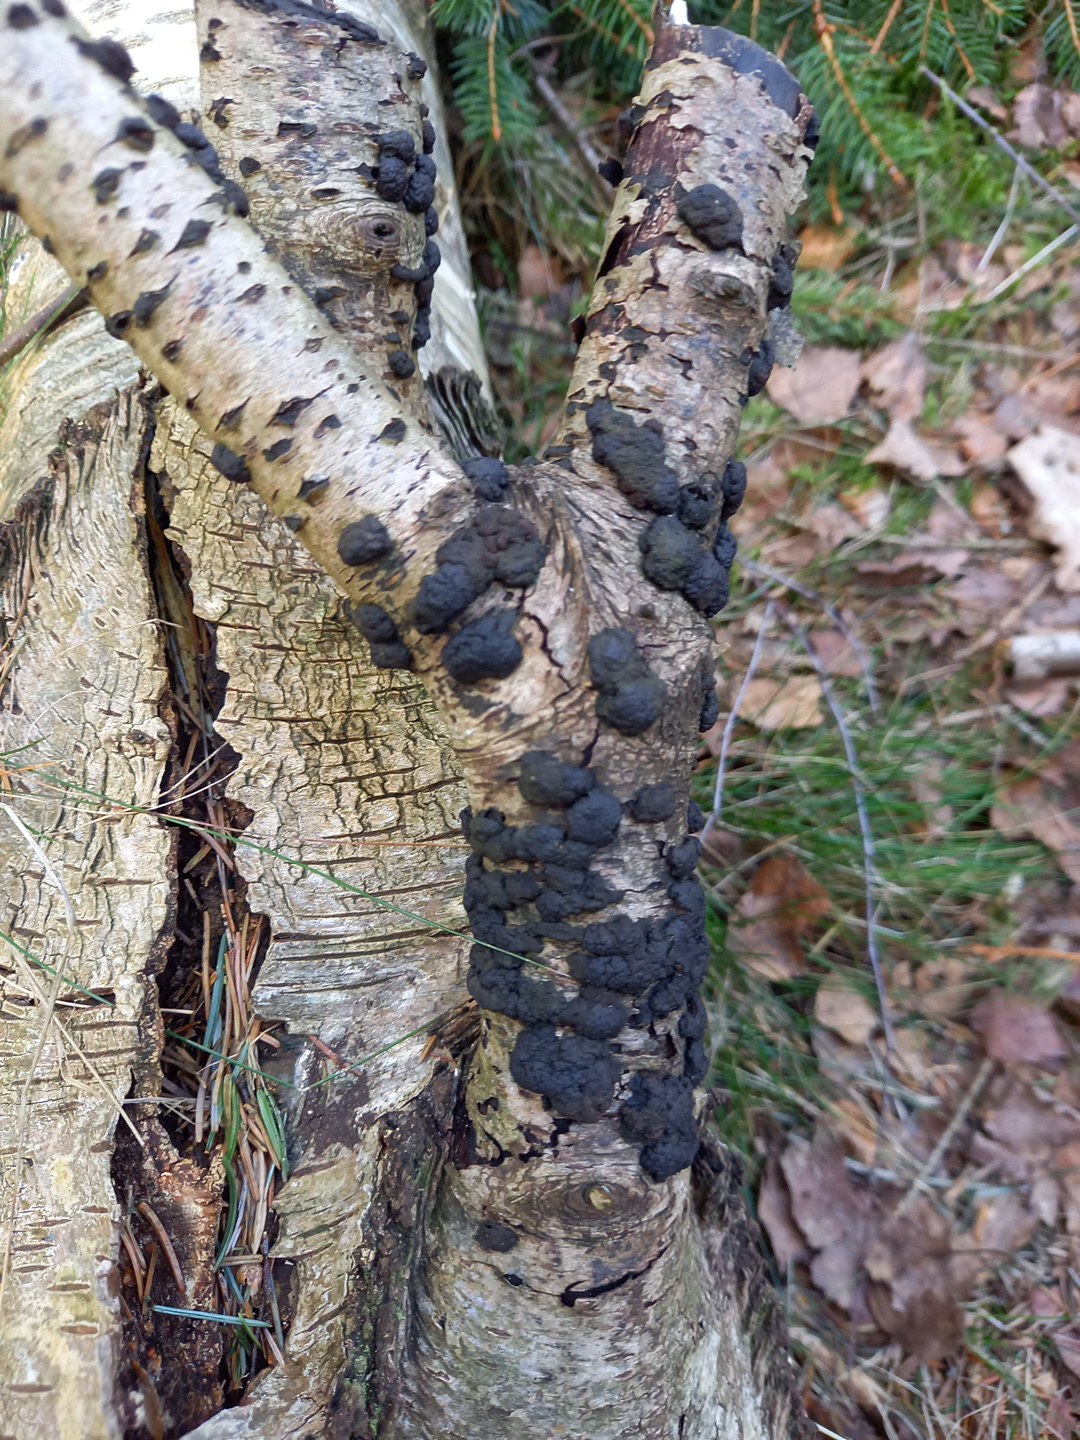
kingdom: Fungi
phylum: Ascomycota
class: Sordariomycetes
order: Xylariales
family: Hypoxylaceae
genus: Jackrogersella
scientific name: Jackrogersella multiformis
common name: foranderlig kulbær
